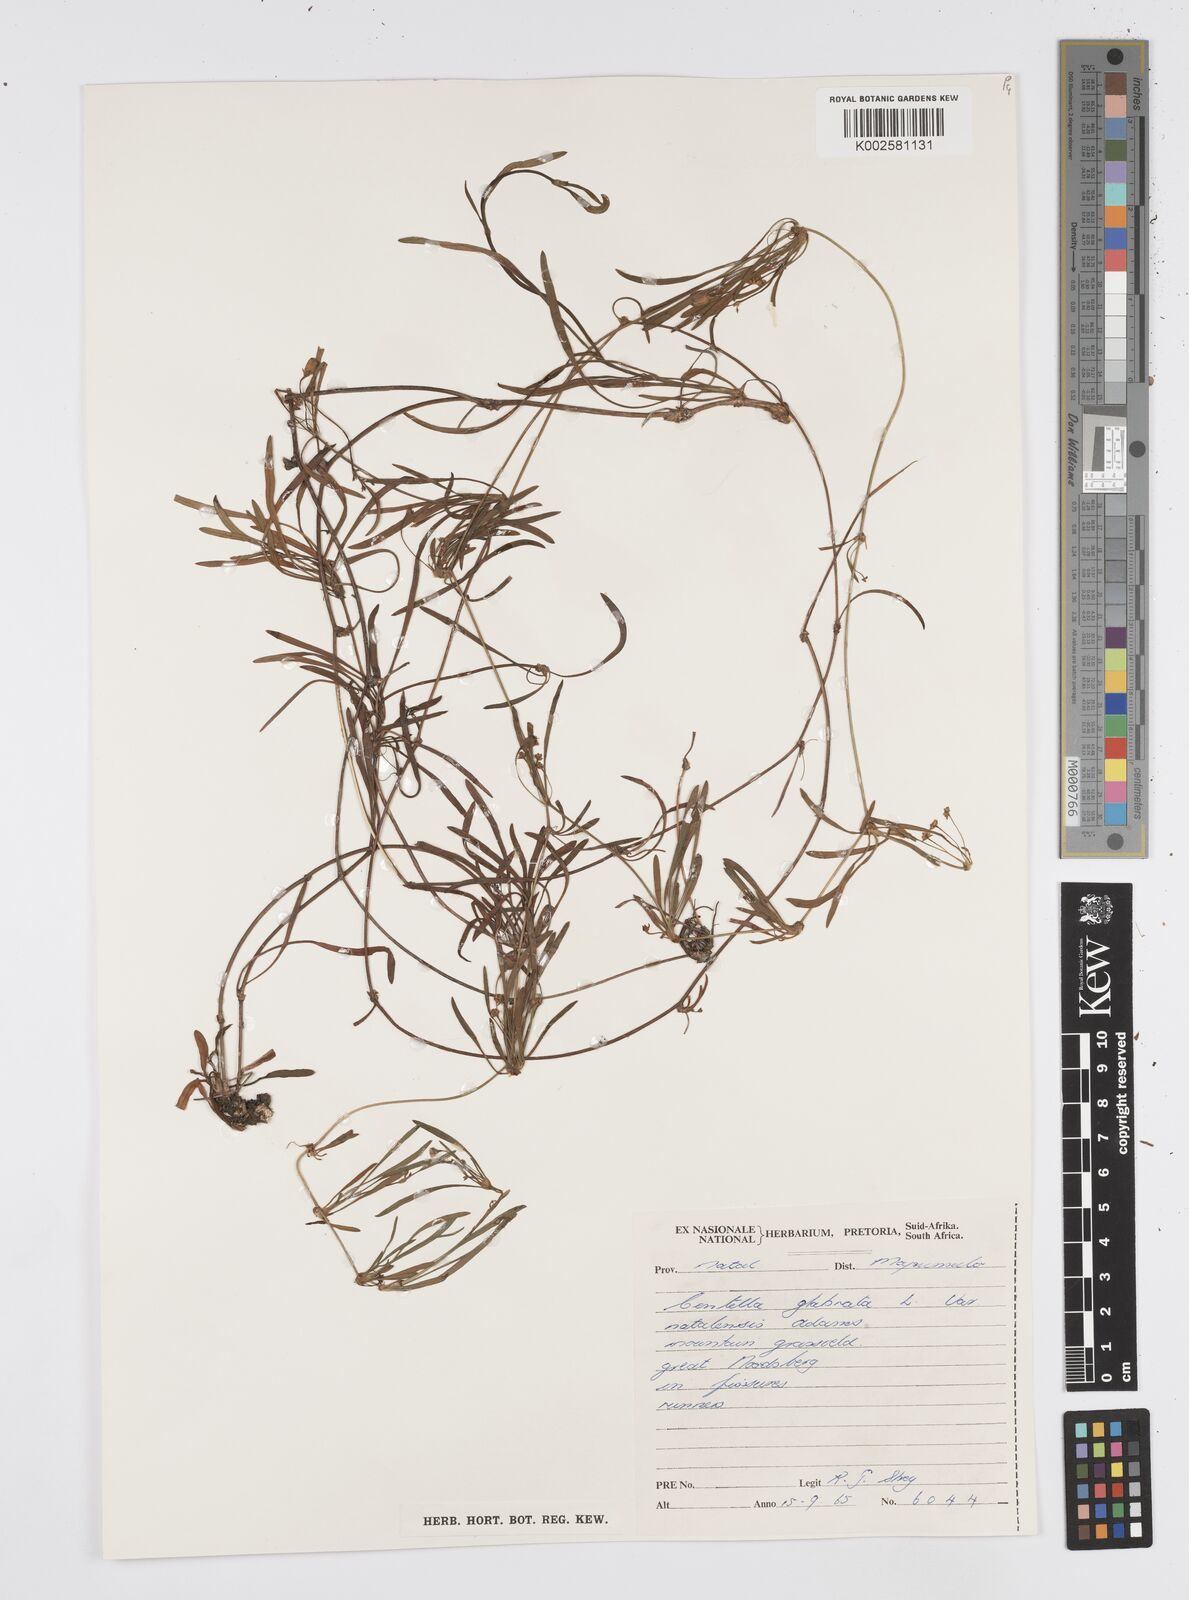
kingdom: Plantae
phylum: Tracheophyta
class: Magnoliopsida
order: Apiales
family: Apiaceae
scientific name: Apiaceae
